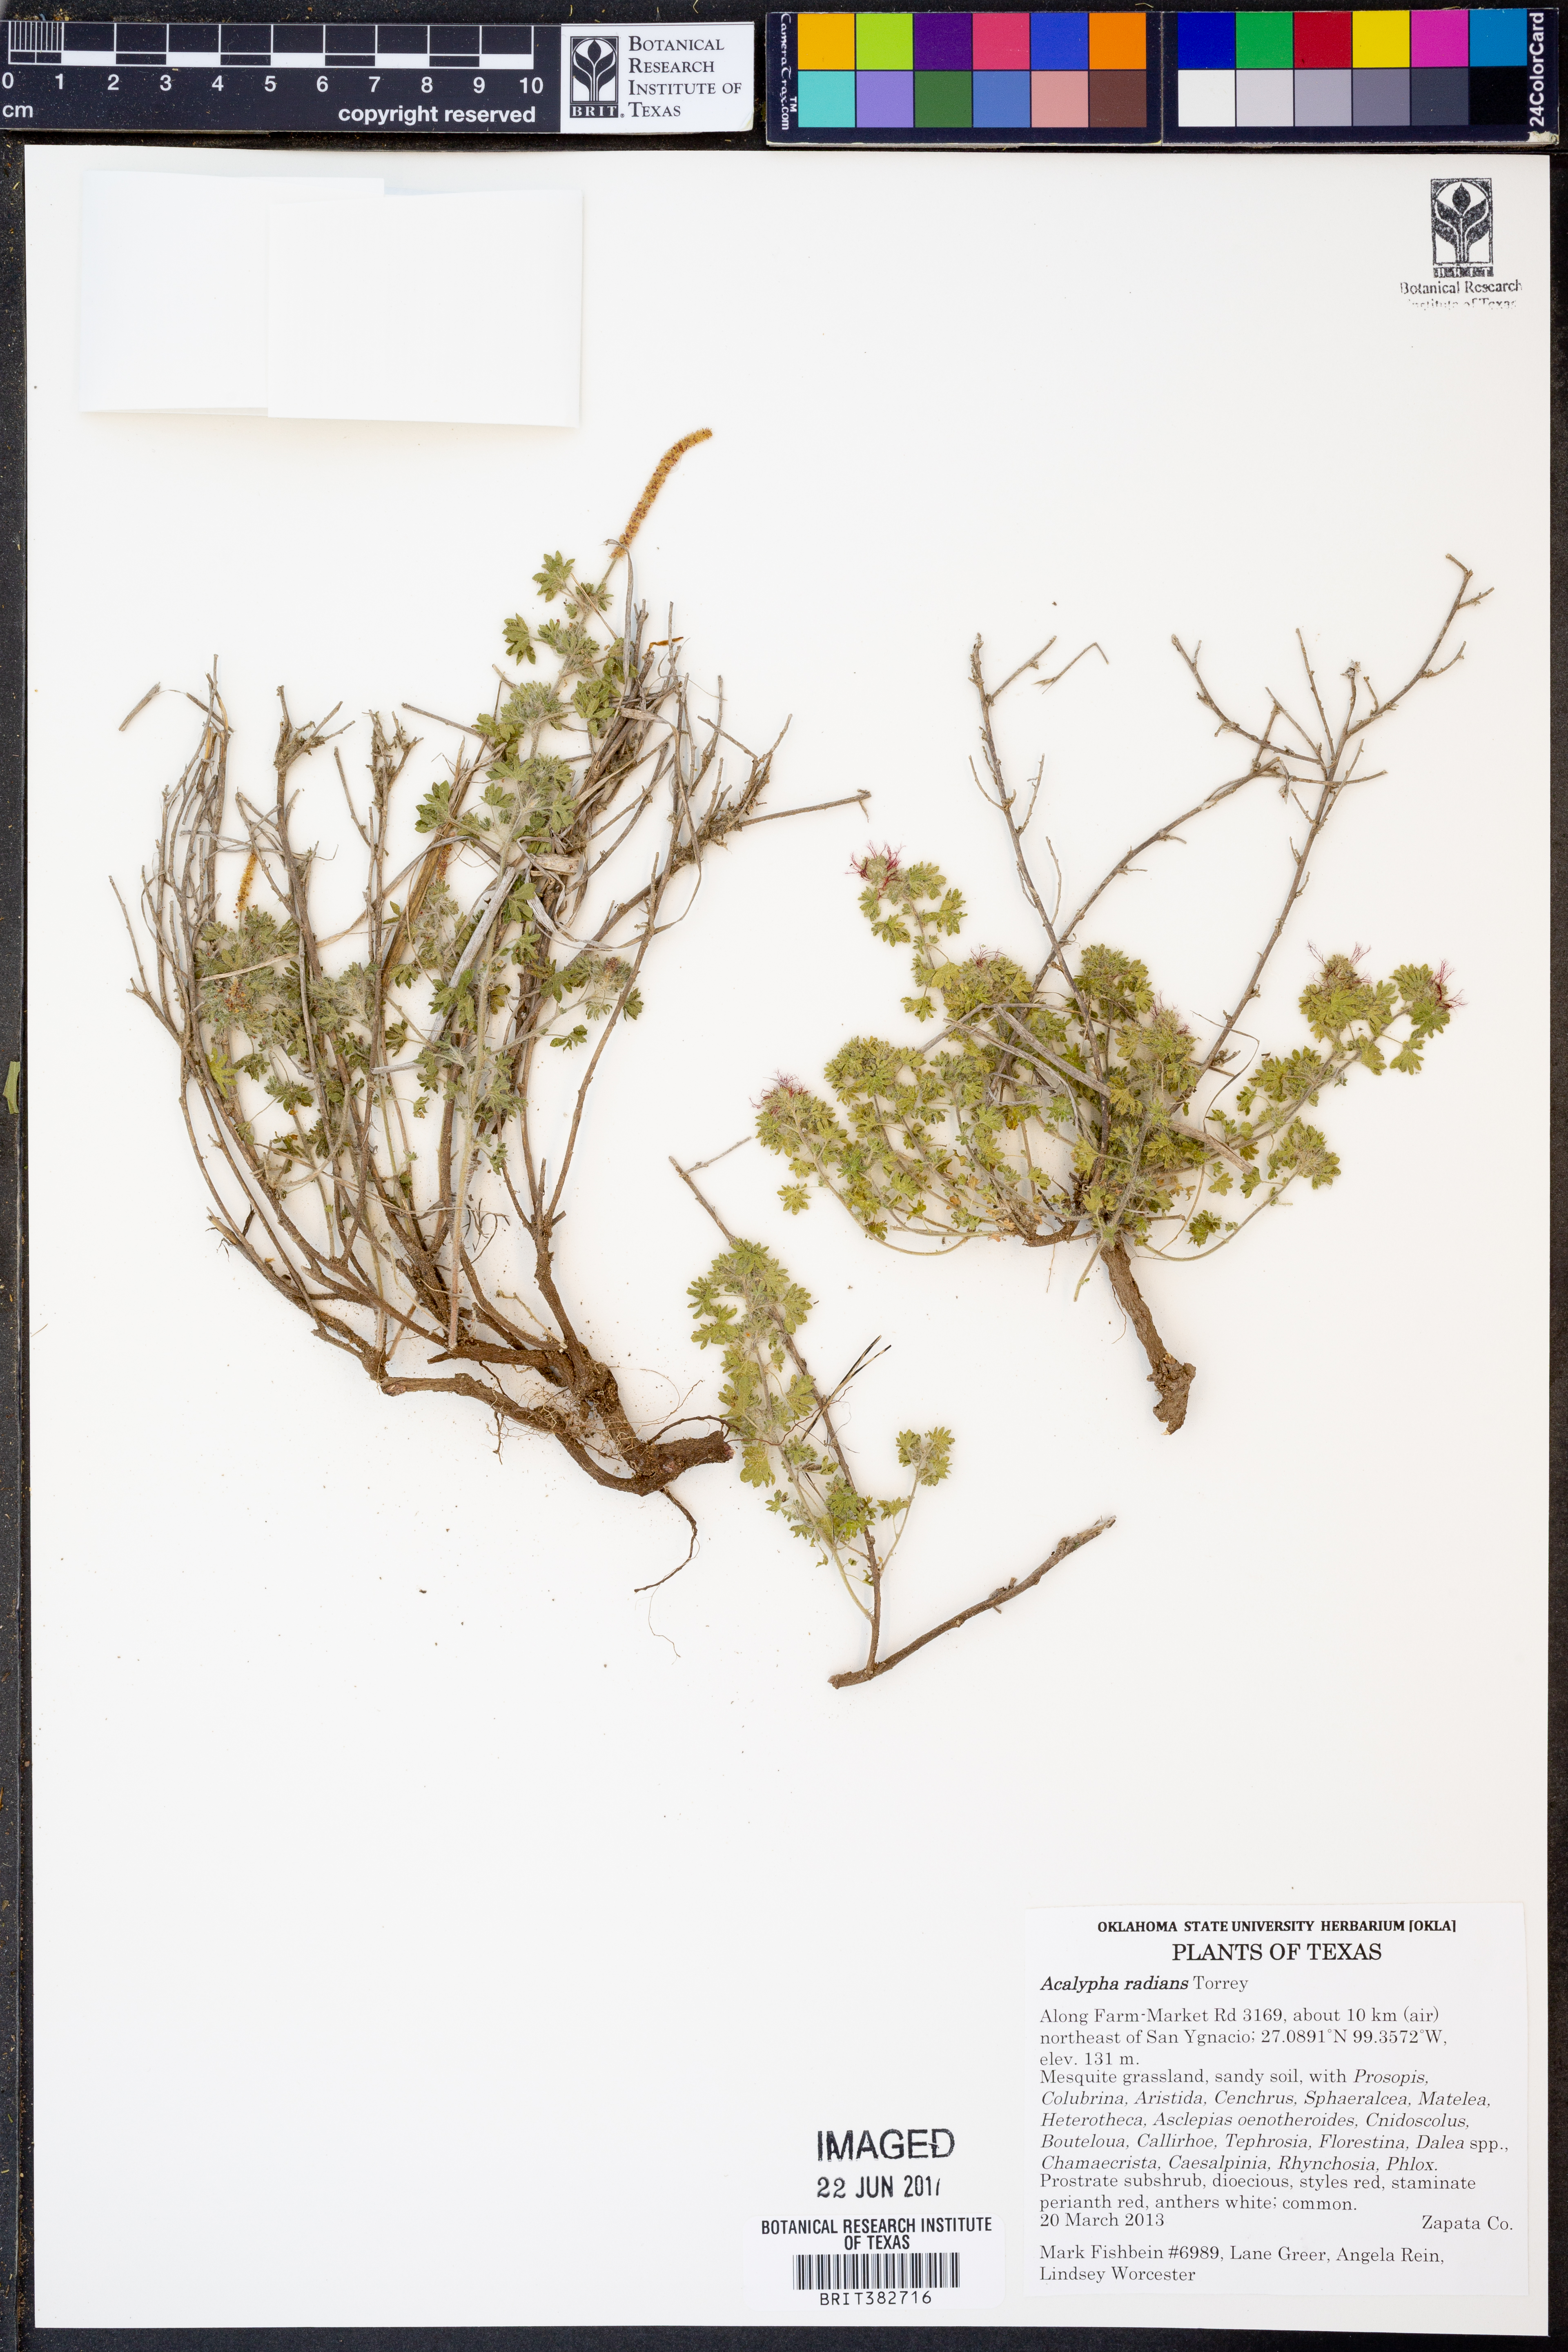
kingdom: Plantae
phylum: Tracheophyta
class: Magnoliopsida
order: Malpighiales
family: Euphorbiaceae
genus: Acalypha
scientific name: Acalypha radians
